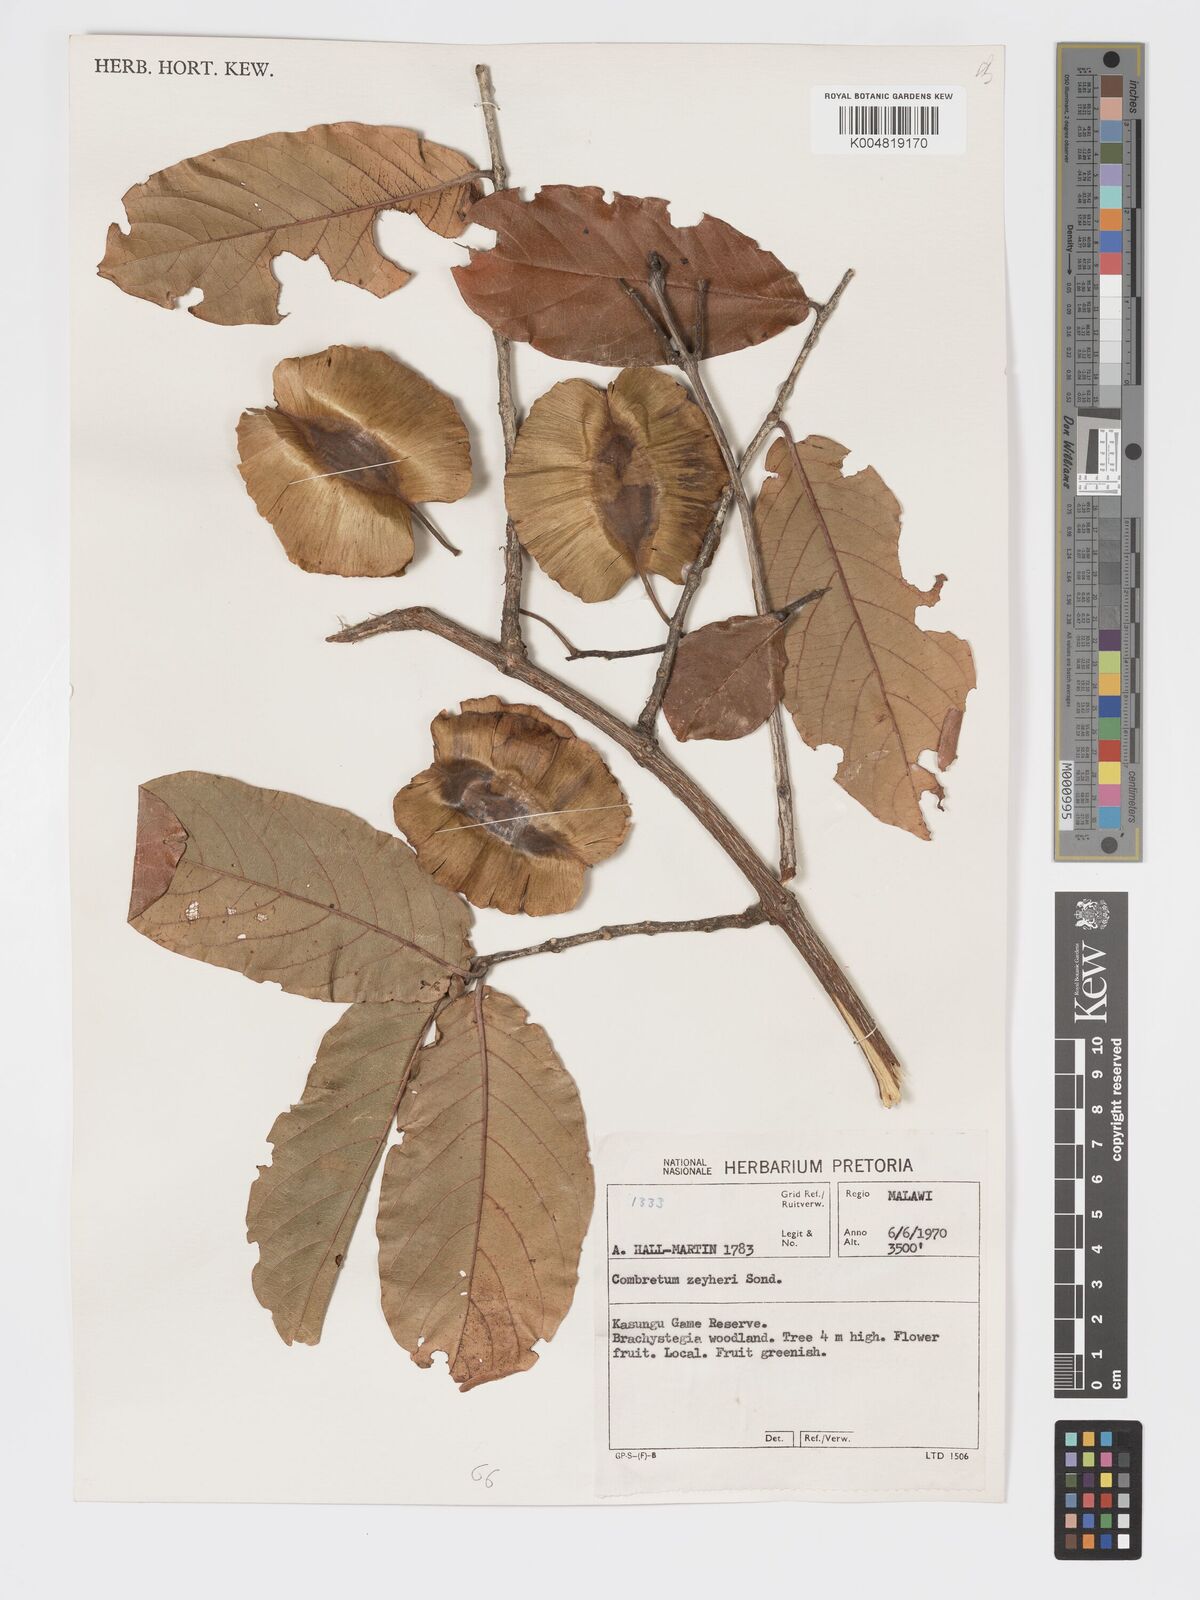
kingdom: Plantae
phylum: Tracheophyta
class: Magnoliopsida
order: Myrtales
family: Combretaceae
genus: Combretum
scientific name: Combretum zeyheri
